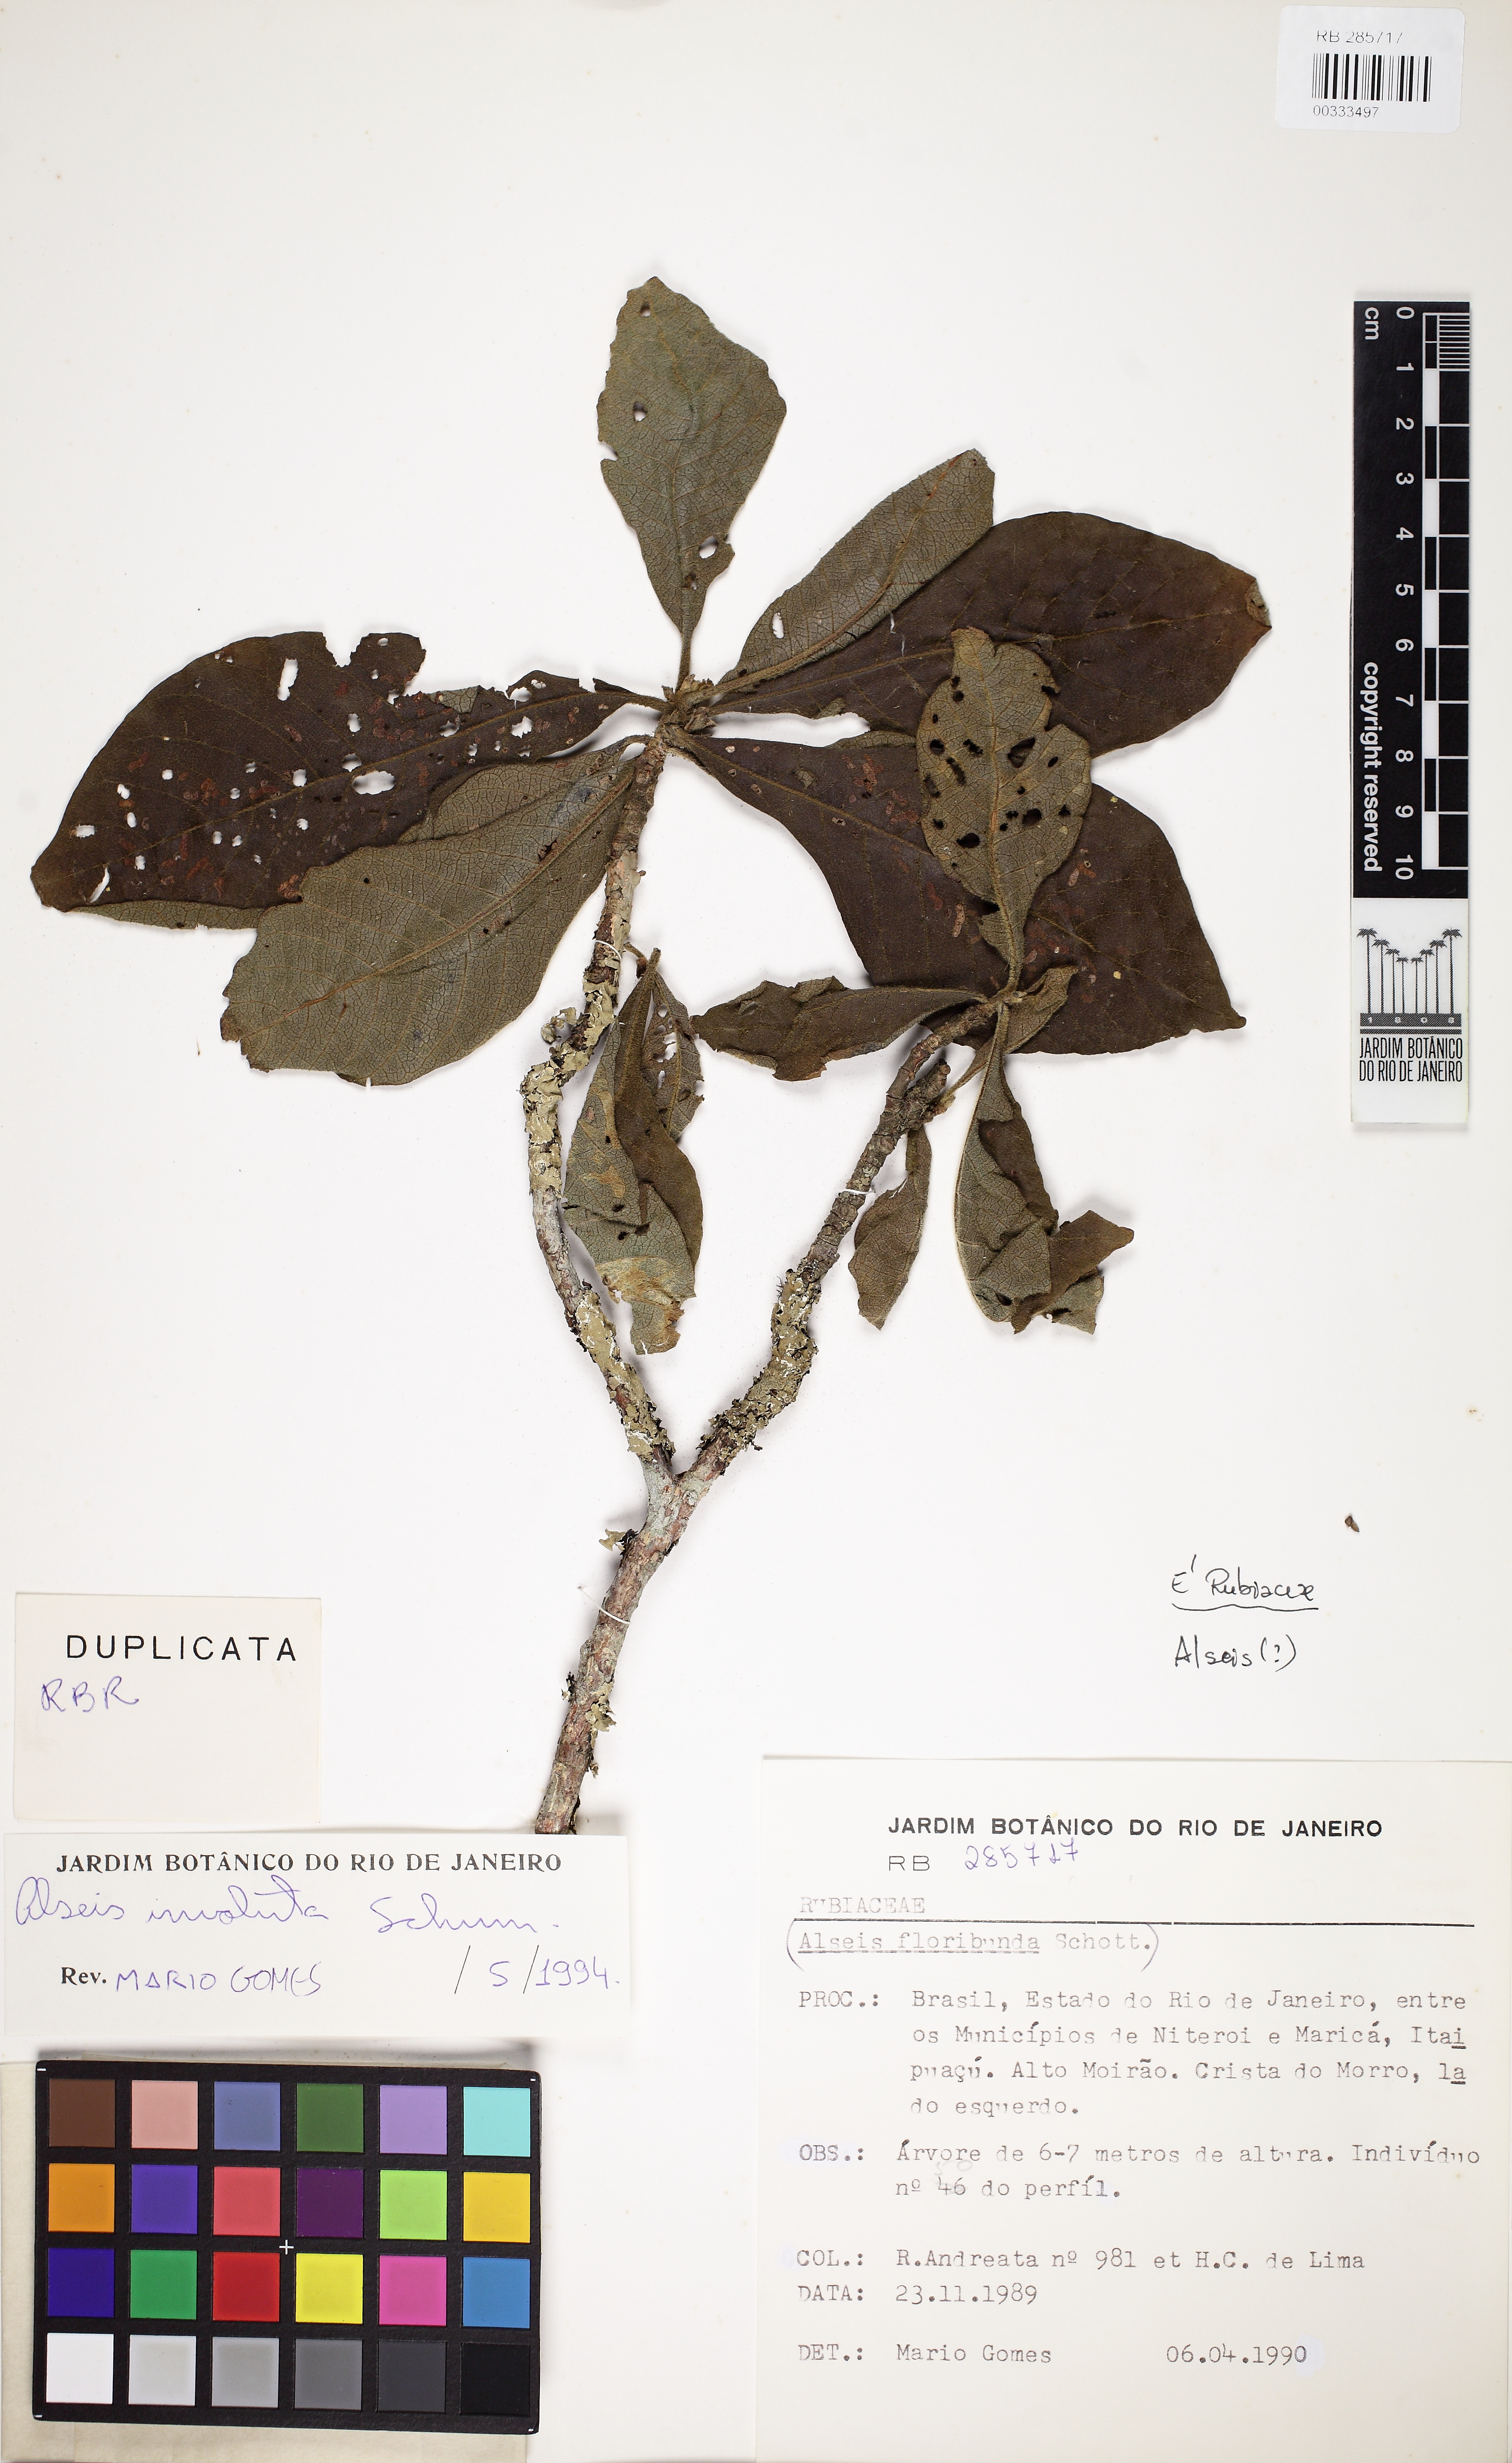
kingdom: Plantae
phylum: Tracheophyta
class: Magnoliopsida
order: Gentianales
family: Rubiaceae
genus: Alseis
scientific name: Alseis involuta
